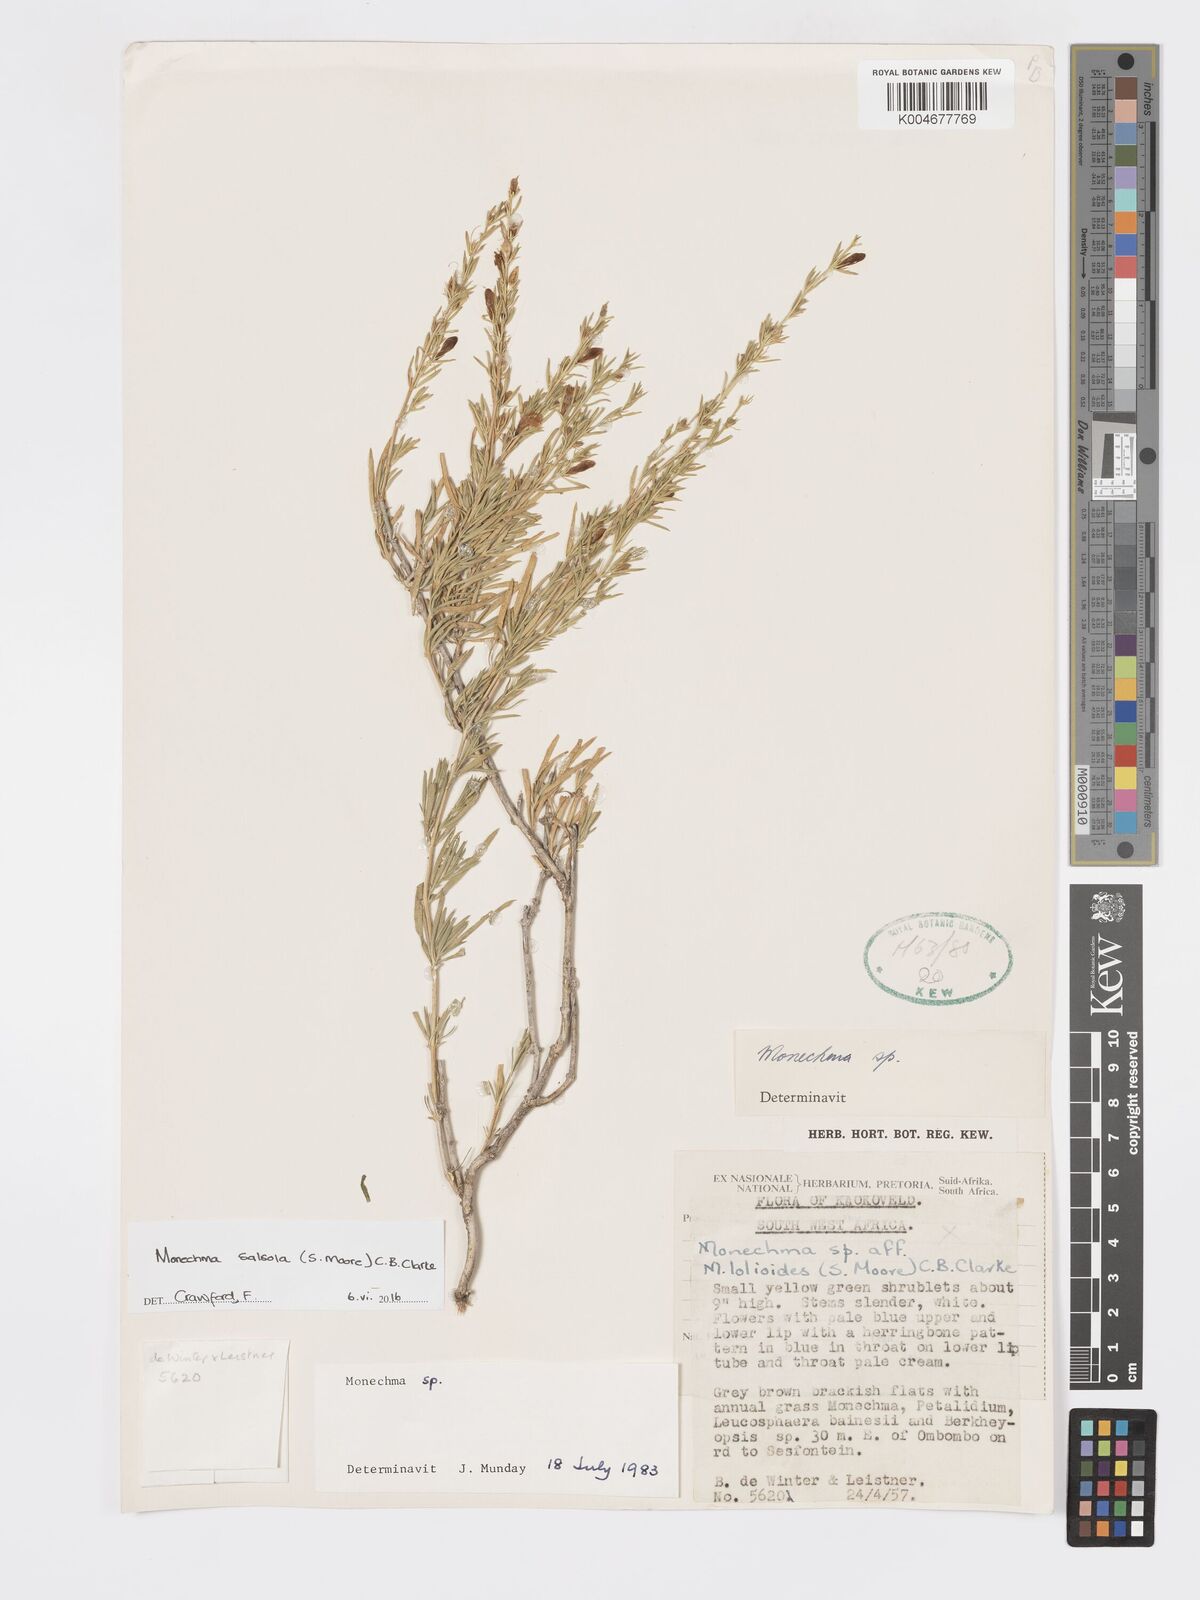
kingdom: Plantae
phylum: Tracheophyta
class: Magnoliopsida
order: Lamiales
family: Acanthaceae
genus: Pogonospermum
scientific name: Pogonospermum
